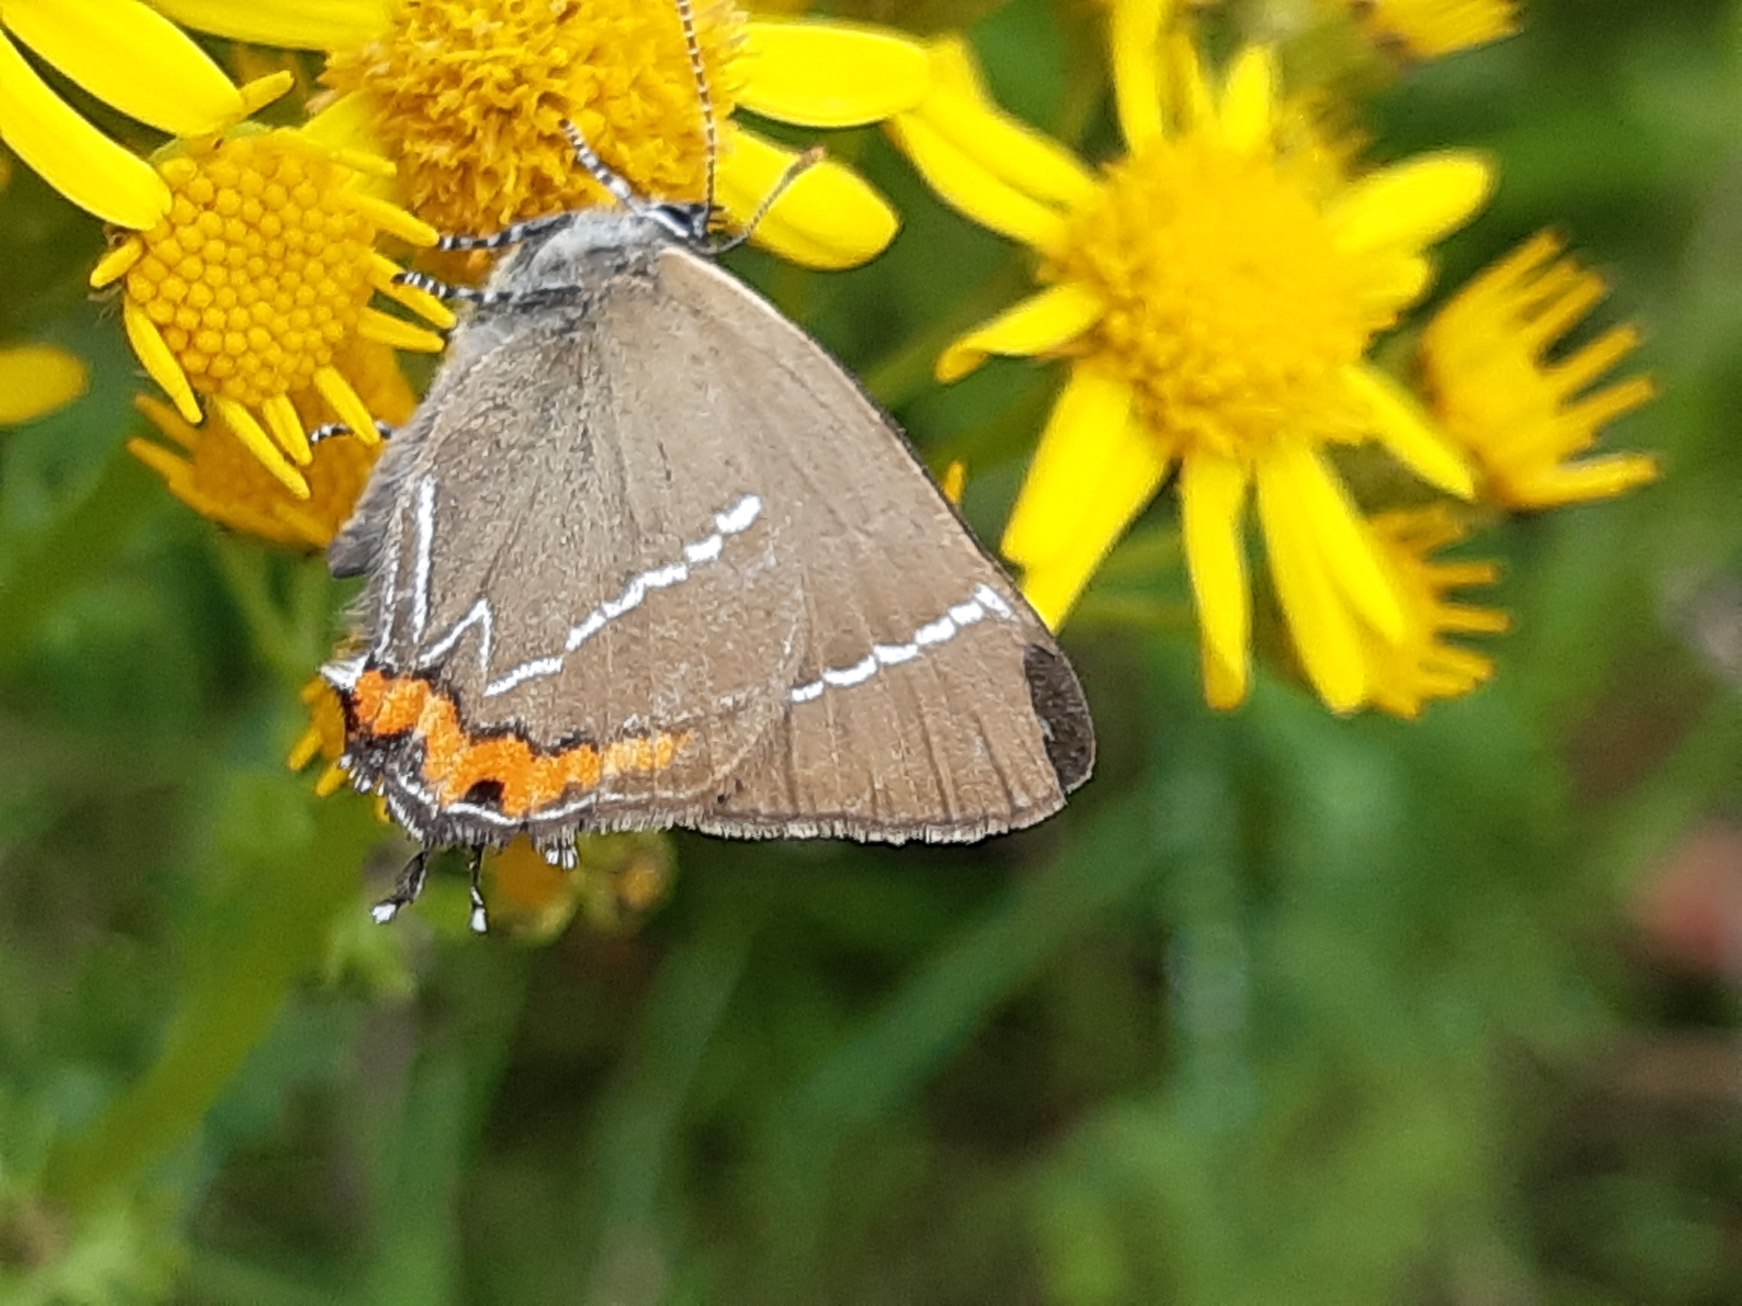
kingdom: Animalia
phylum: Arthropoda
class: Insecta
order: Lepidoptera
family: Lycaenidae
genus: Satyrium
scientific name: Satyrium w-album
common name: Det hvide W
